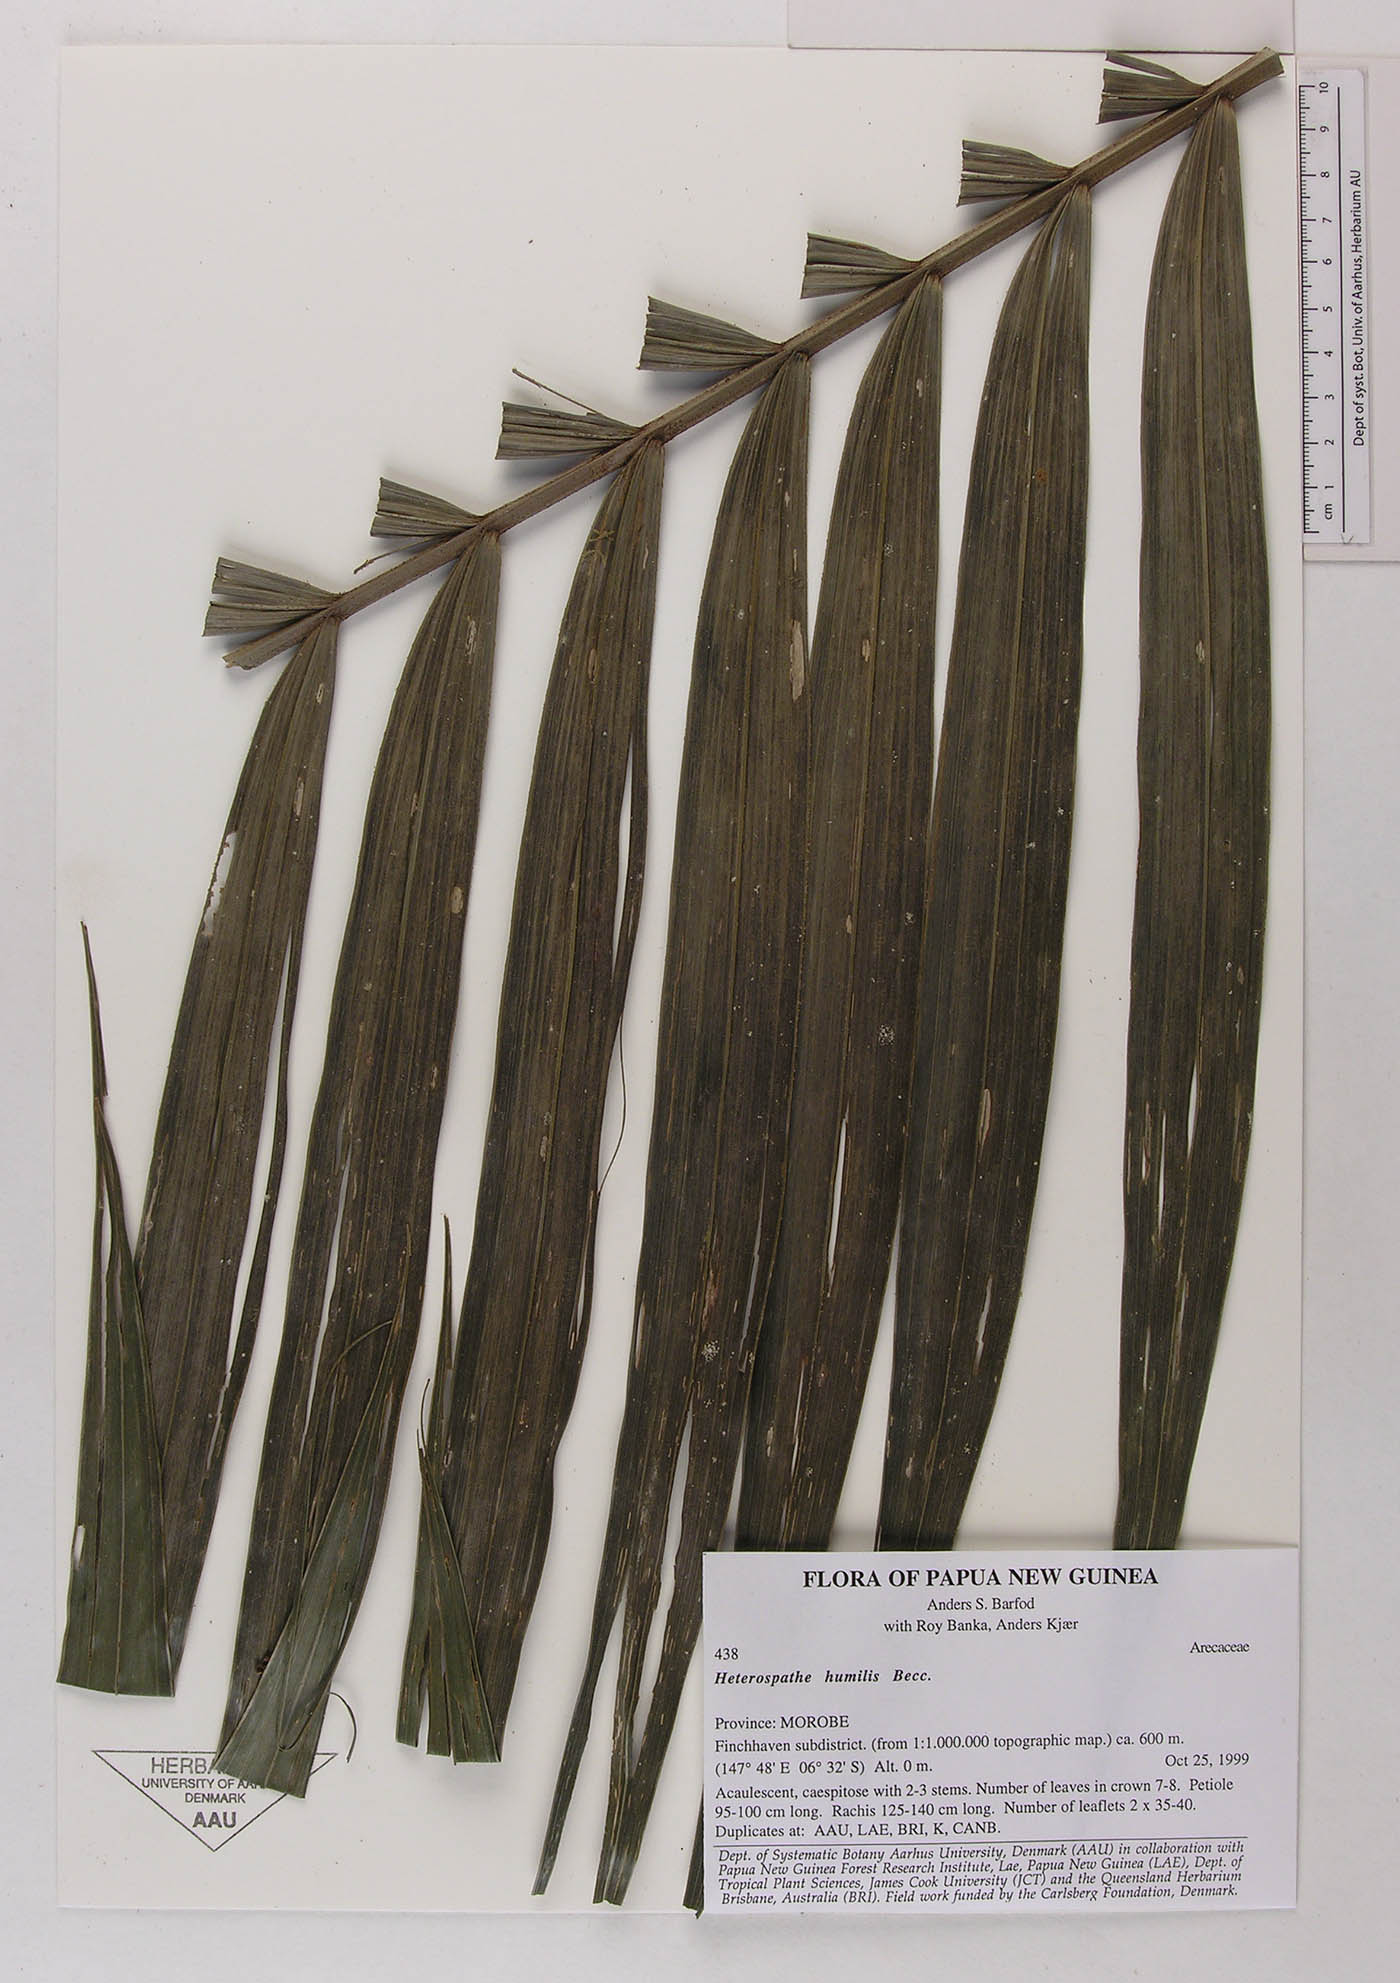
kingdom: Plantae
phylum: Tracheophyta
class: Liliopsida
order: Arecales
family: Arecaceae
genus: Heterospathe
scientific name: Heterospathe elegans
